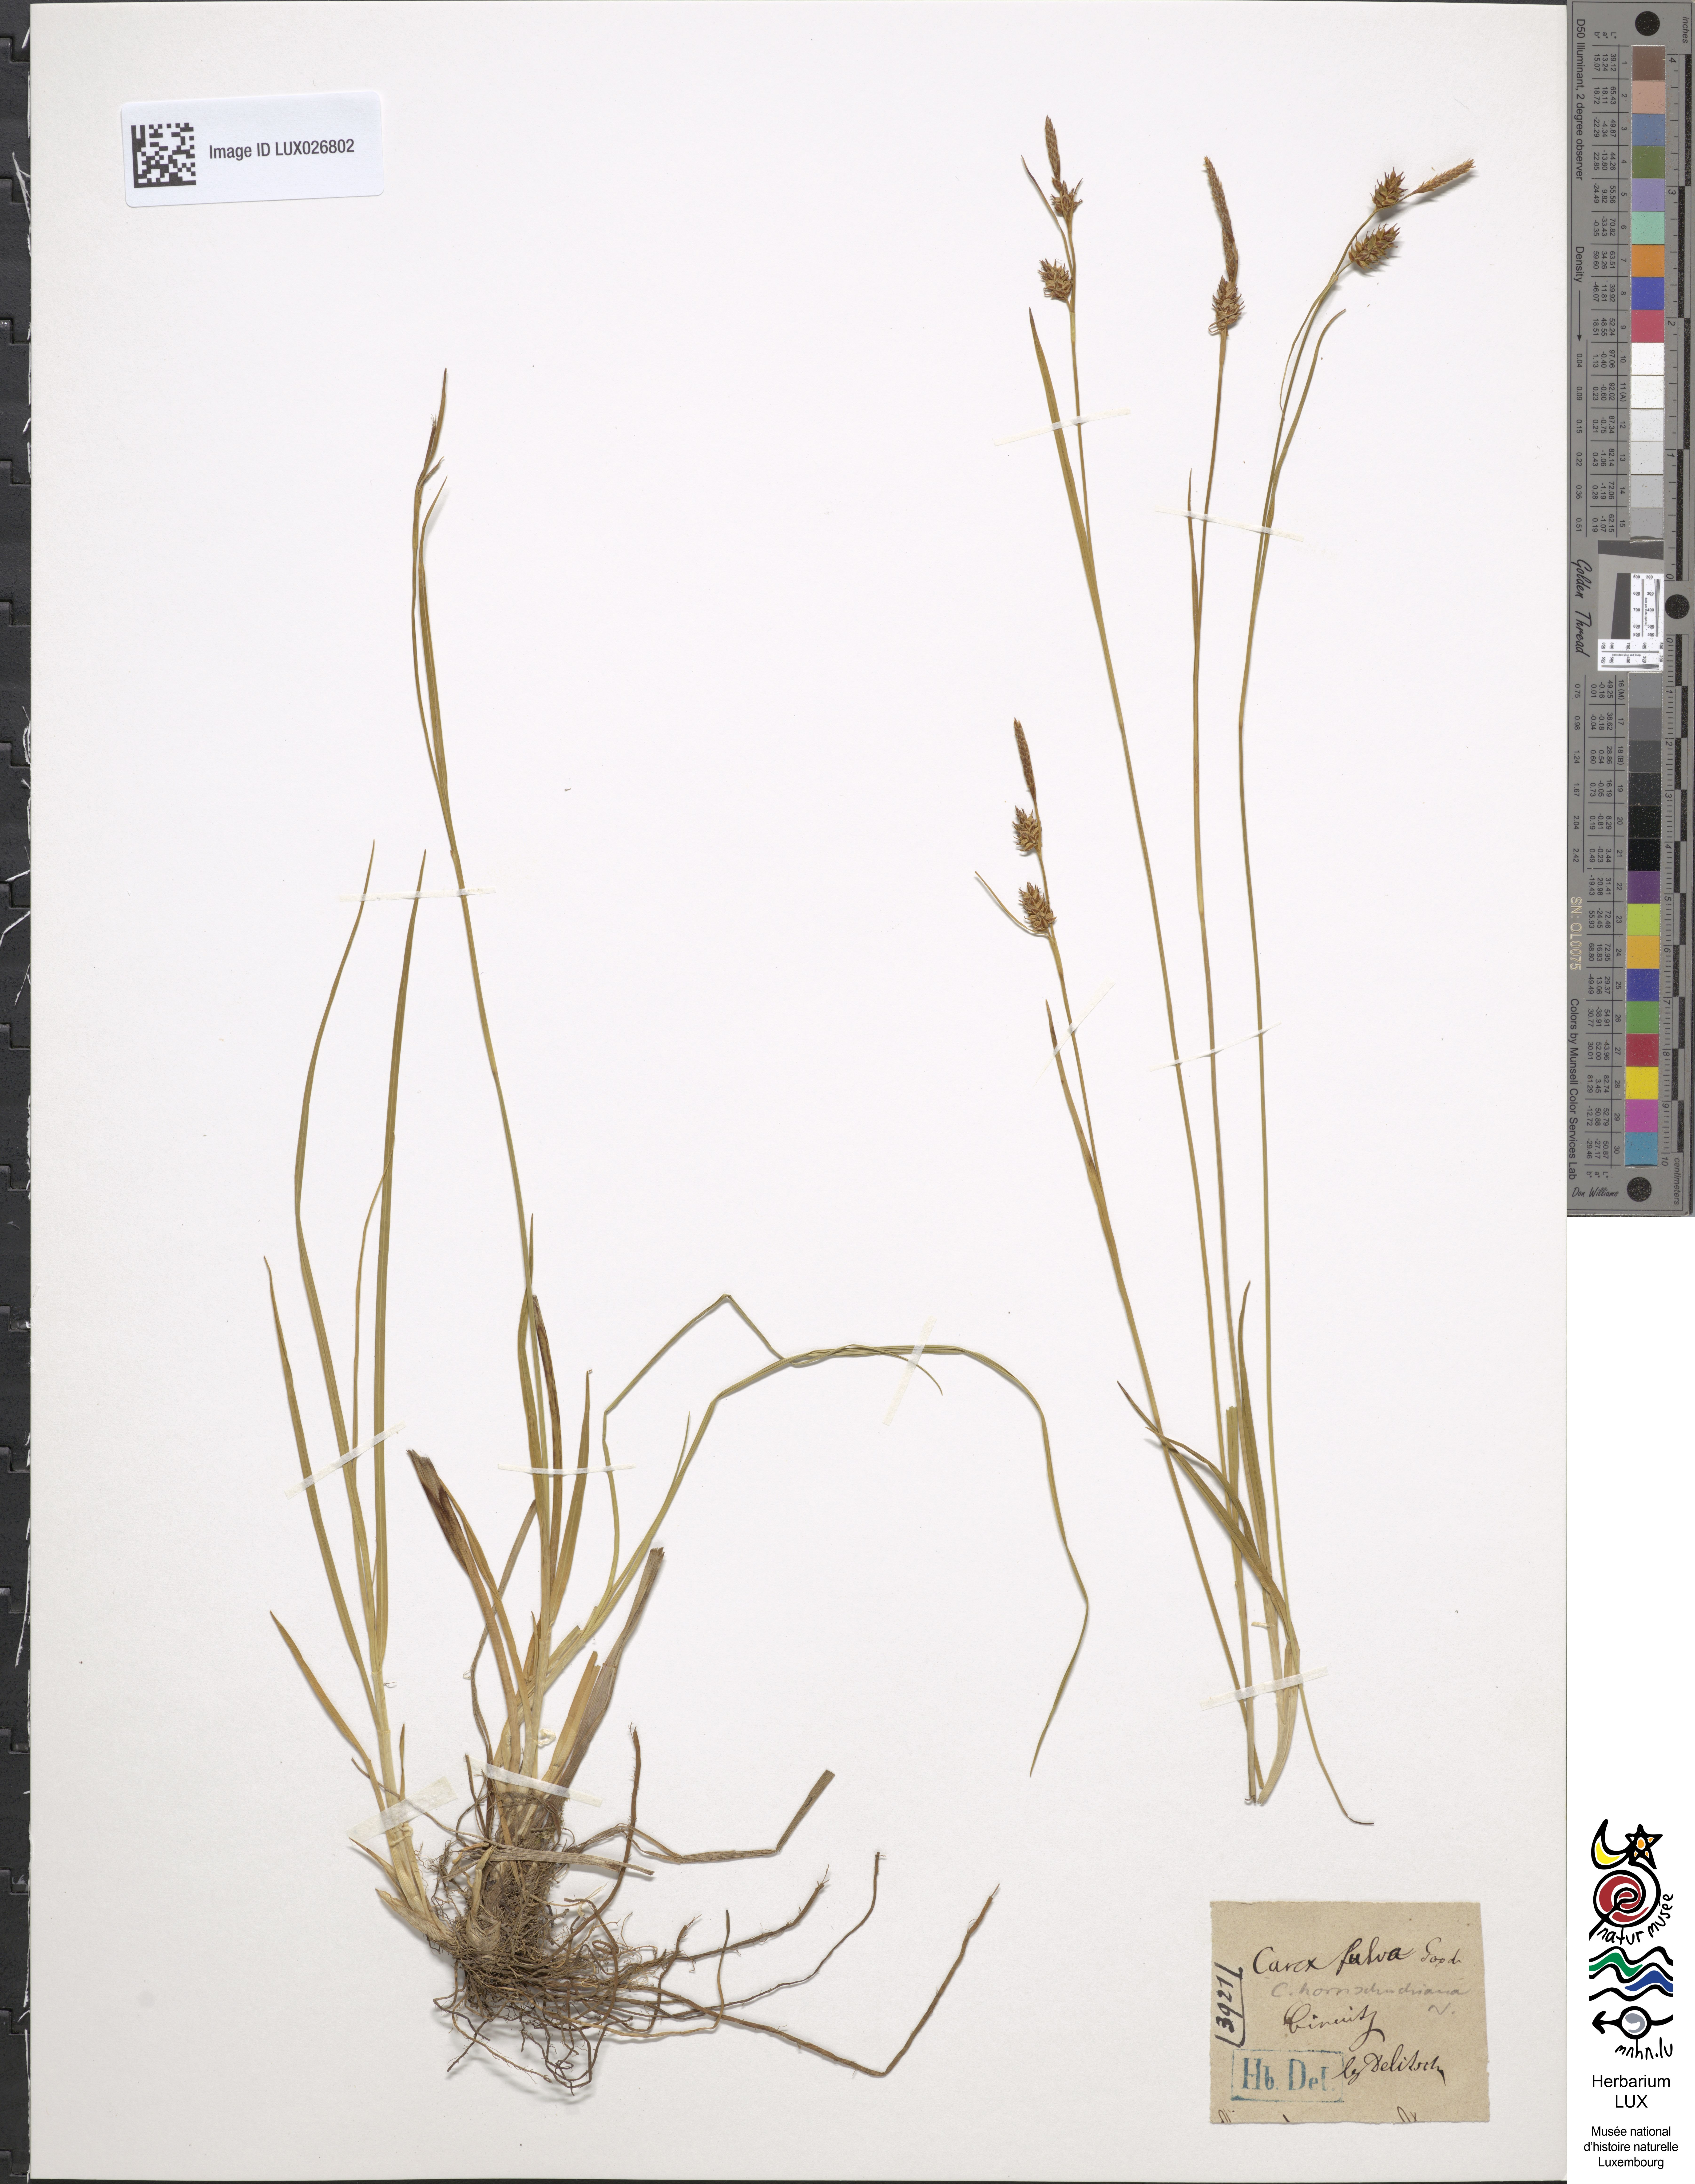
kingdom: Plantae
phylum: Tracheophyta
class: Liliopsida
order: Poales
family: Cyperaceae
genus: Carex
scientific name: Carex hostiana
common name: Tawny sedge
